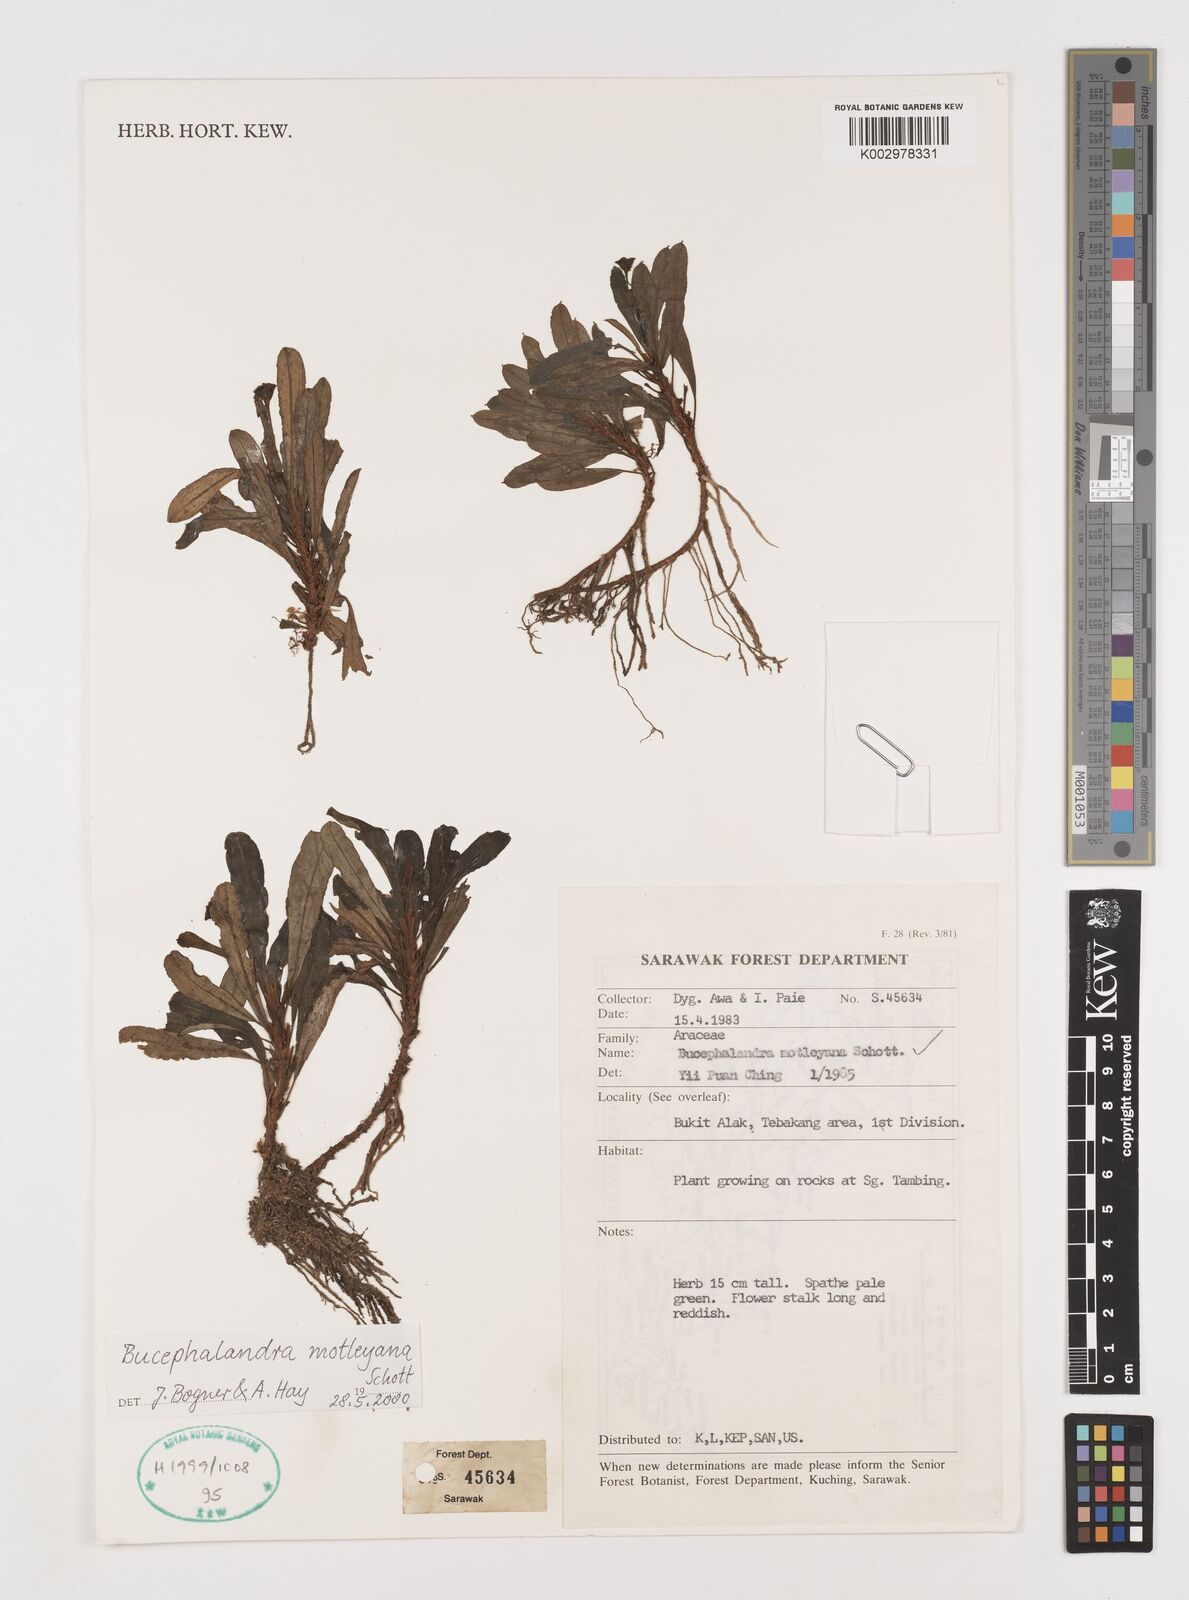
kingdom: Plantae
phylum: Tracheophyta
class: Liliopsida
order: Alismatales
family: Araceae
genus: Bucephalandra
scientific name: Bucephalandra motleyana
